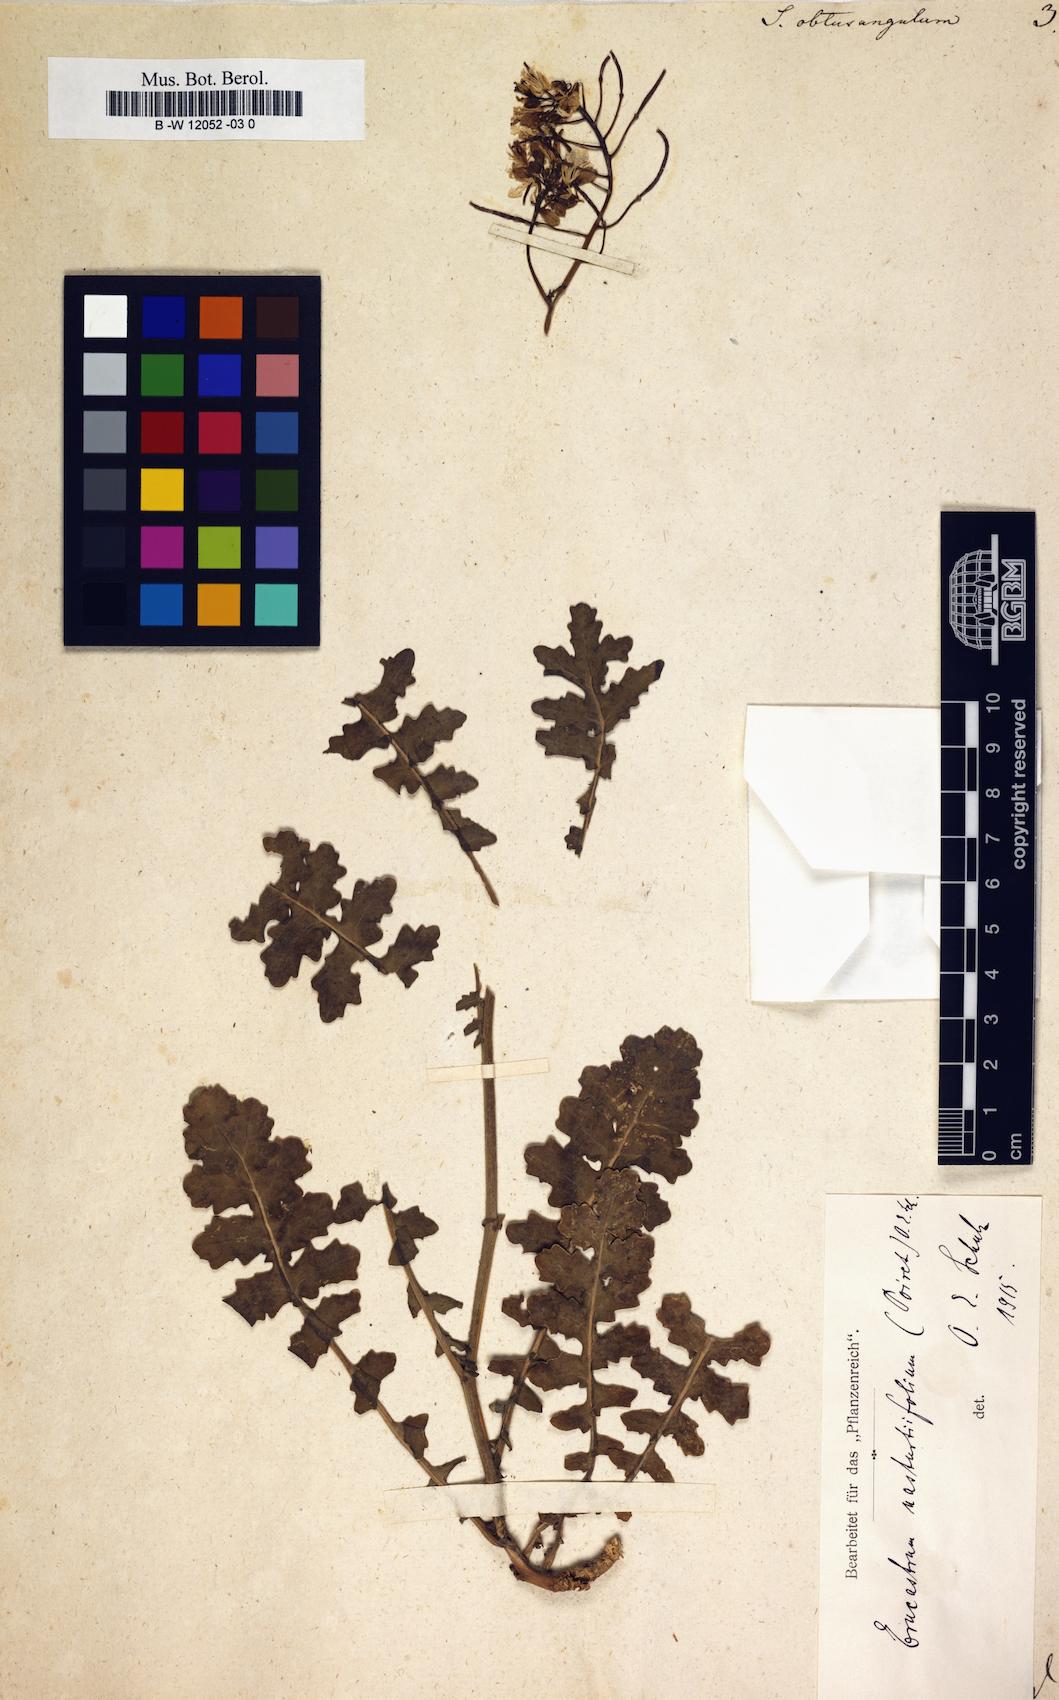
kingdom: Plantae
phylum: Tracheophyta
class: Magnoliopsida
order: Brassicales
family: Brassicaceae
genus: Erucastrum
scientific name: Erucastrum nasturtiifolium
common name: Watercress-leaf rocket
